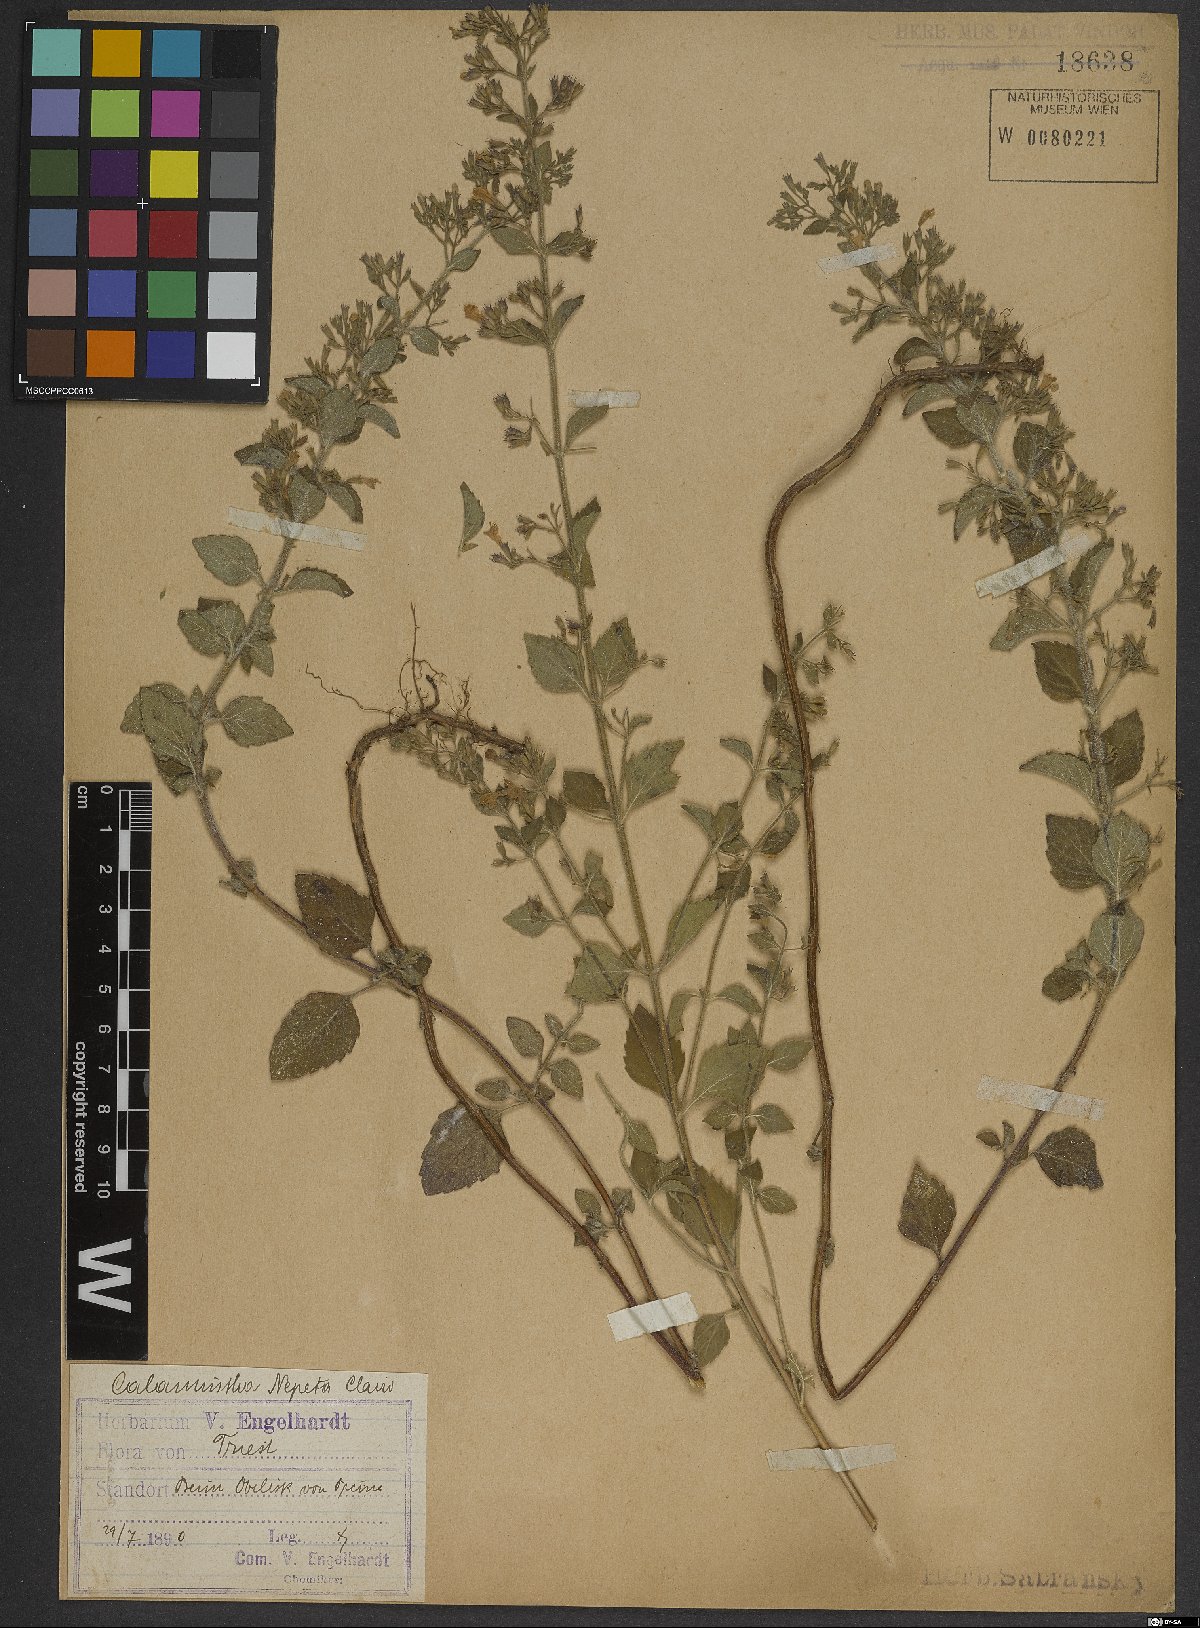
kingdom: Plantae
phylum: Tracheophyta
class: Magnoliopsida
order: Lamiales
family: Lamiaceae
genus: Clinopodium
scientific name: Clinopodium nepeta
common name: Lesser calamint
